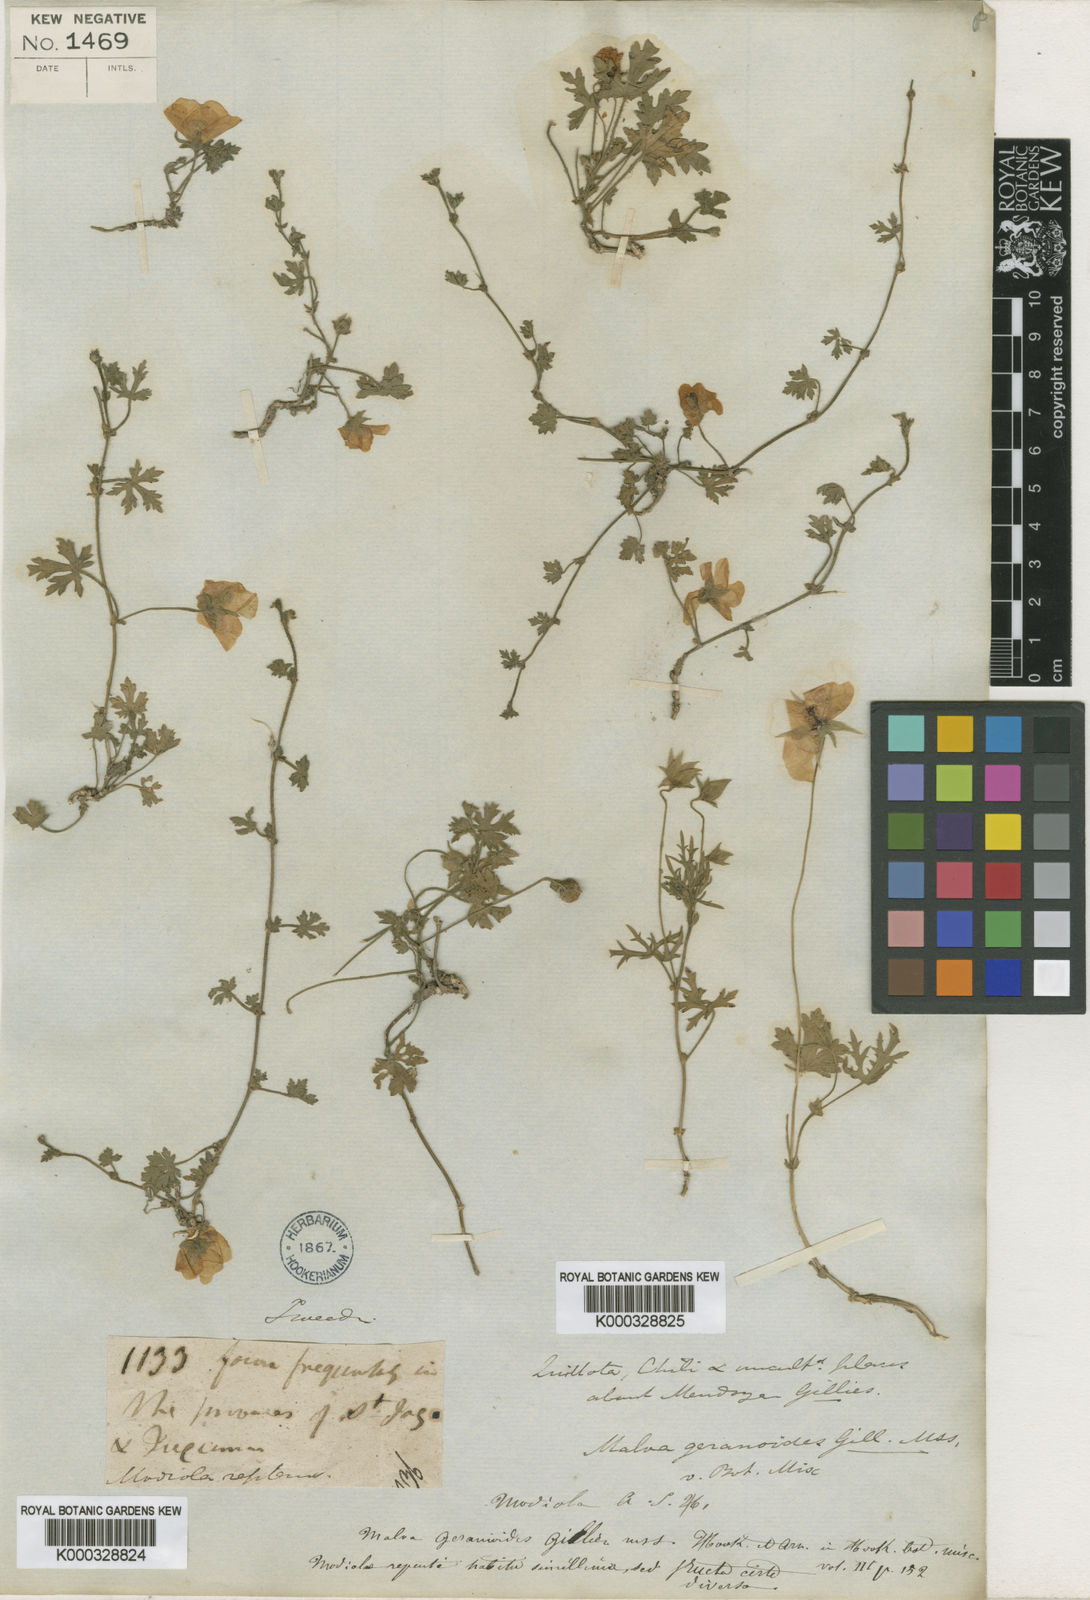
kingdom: Plantae
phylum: Tracheophyta
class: Magnoliopsida
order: Malvales
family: Malvaceae
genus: Modiolastrum
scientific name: Modiolastrum
